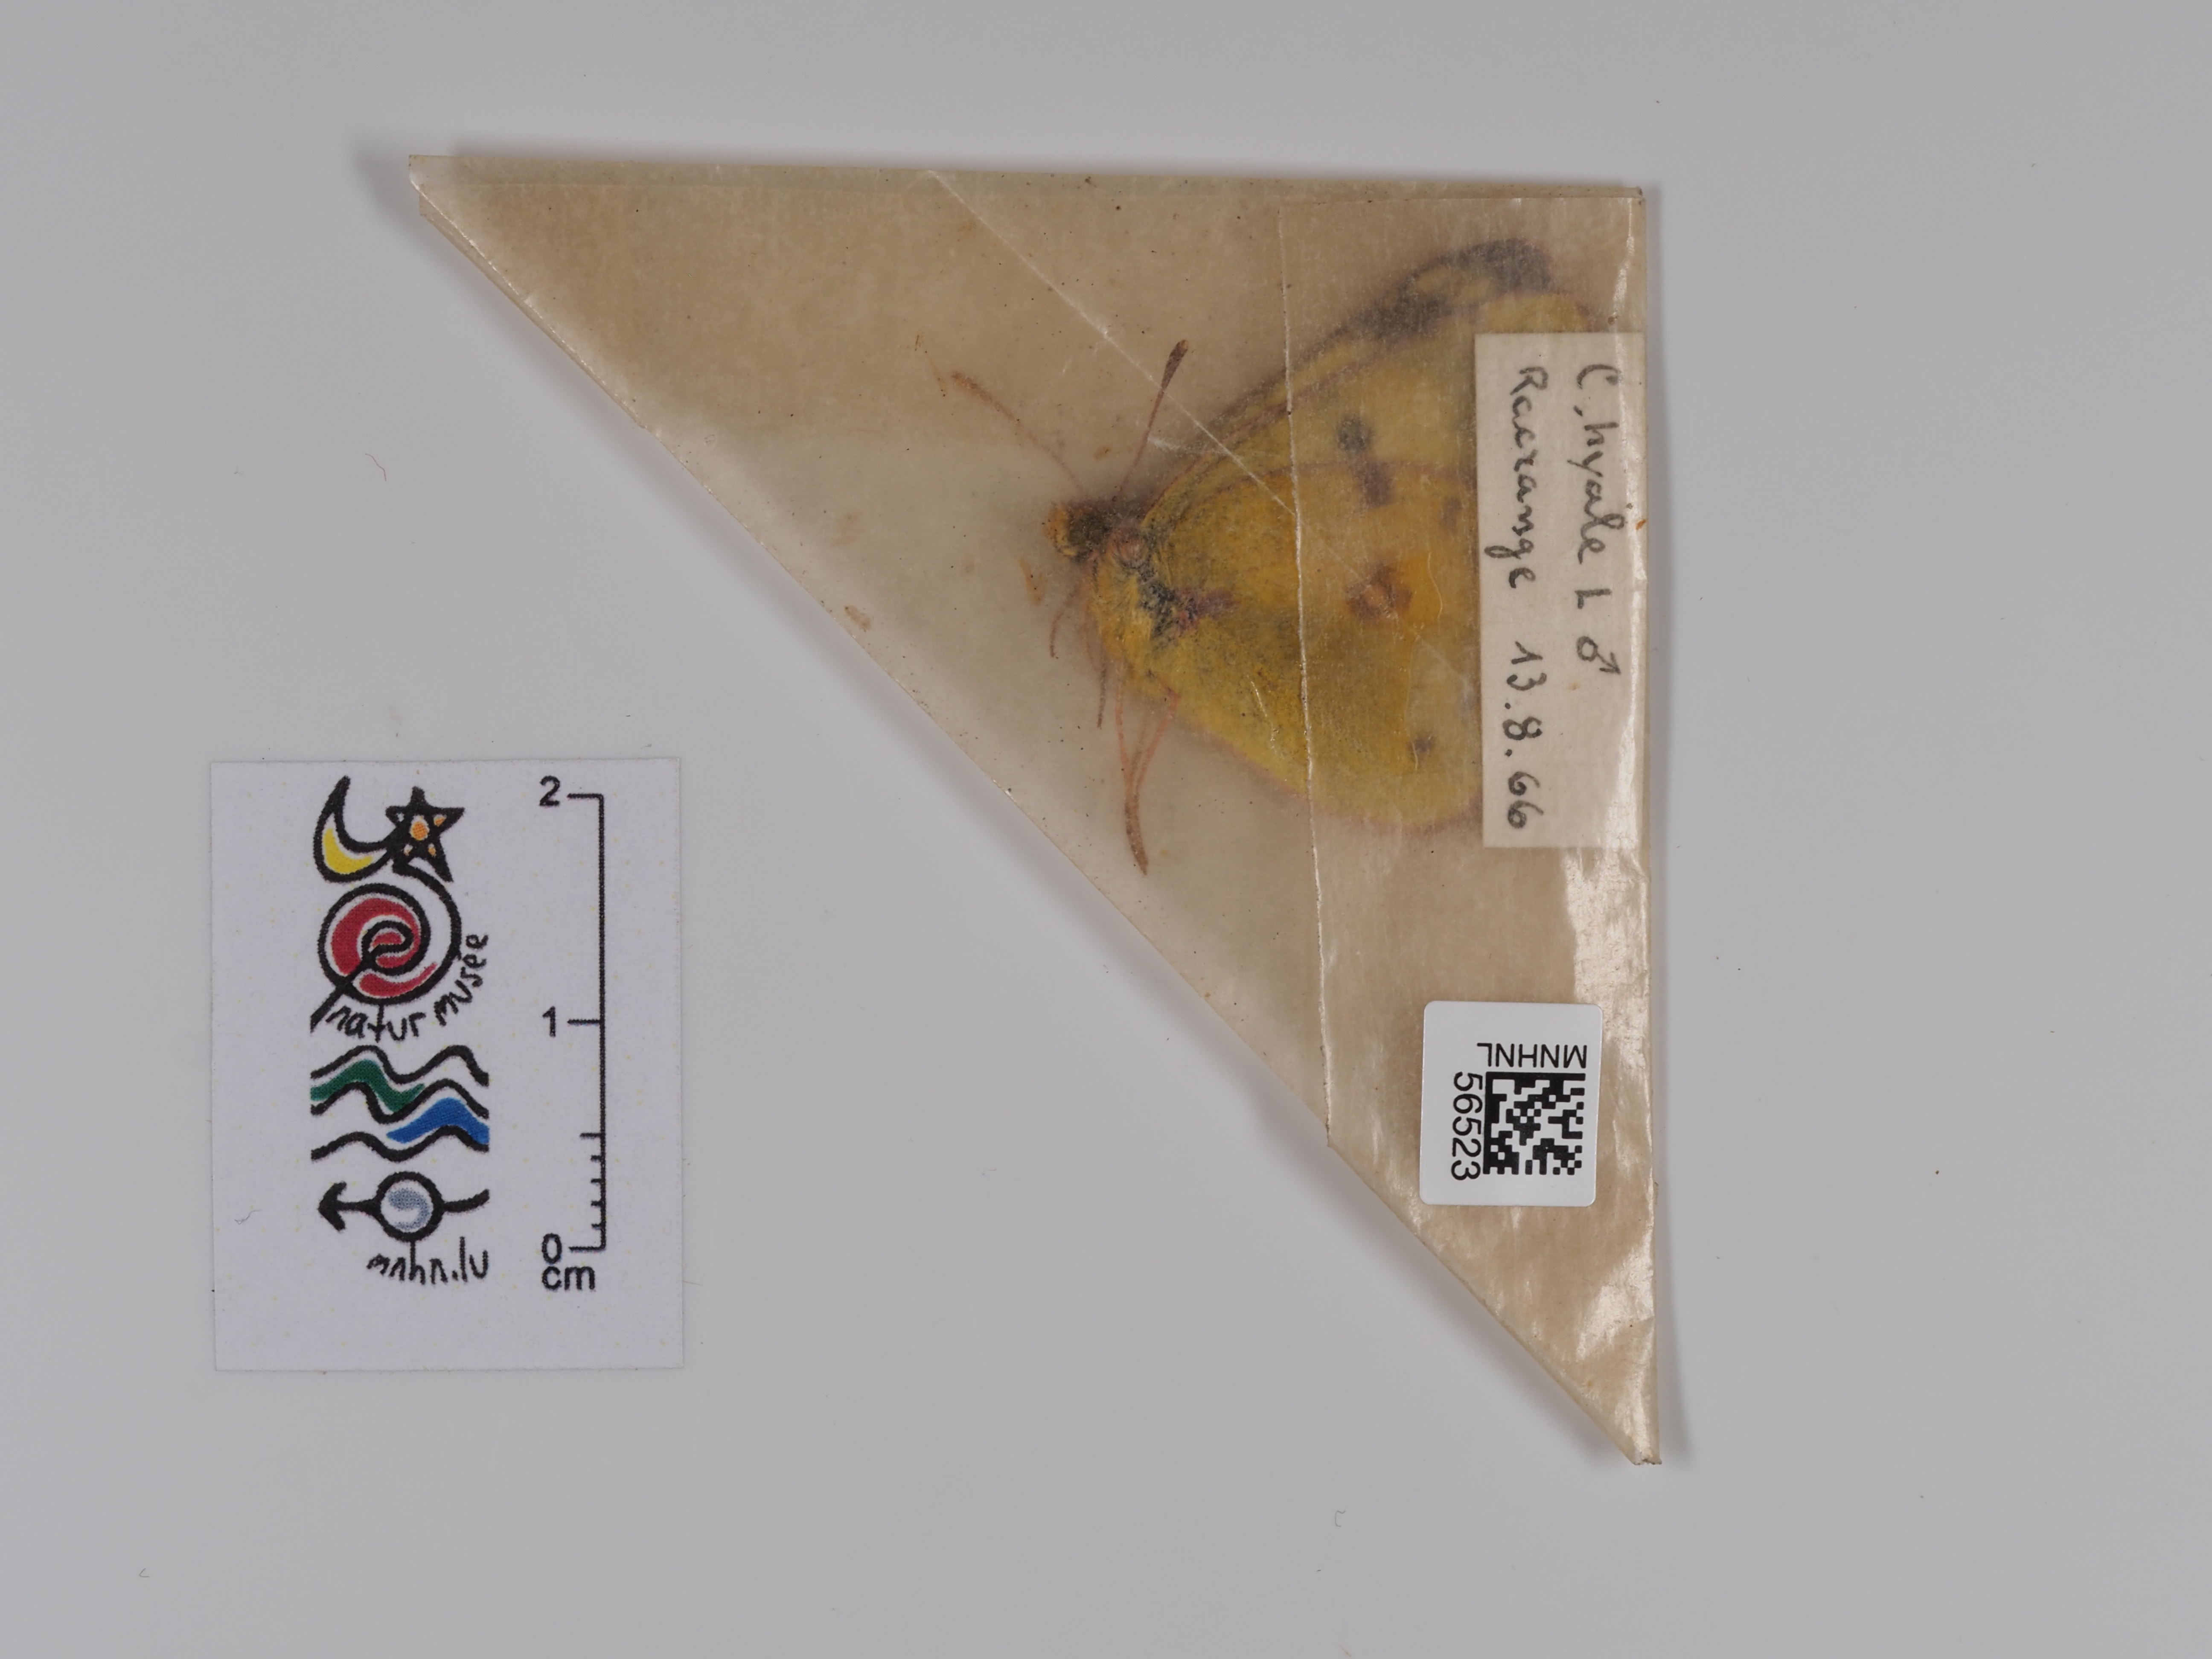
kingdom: Animalia
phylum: Arthropoda
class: Insecta
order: Lepidoptera
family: Pieridae
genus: Colias
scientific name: Colias hyale
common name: Pale clouded yellow
